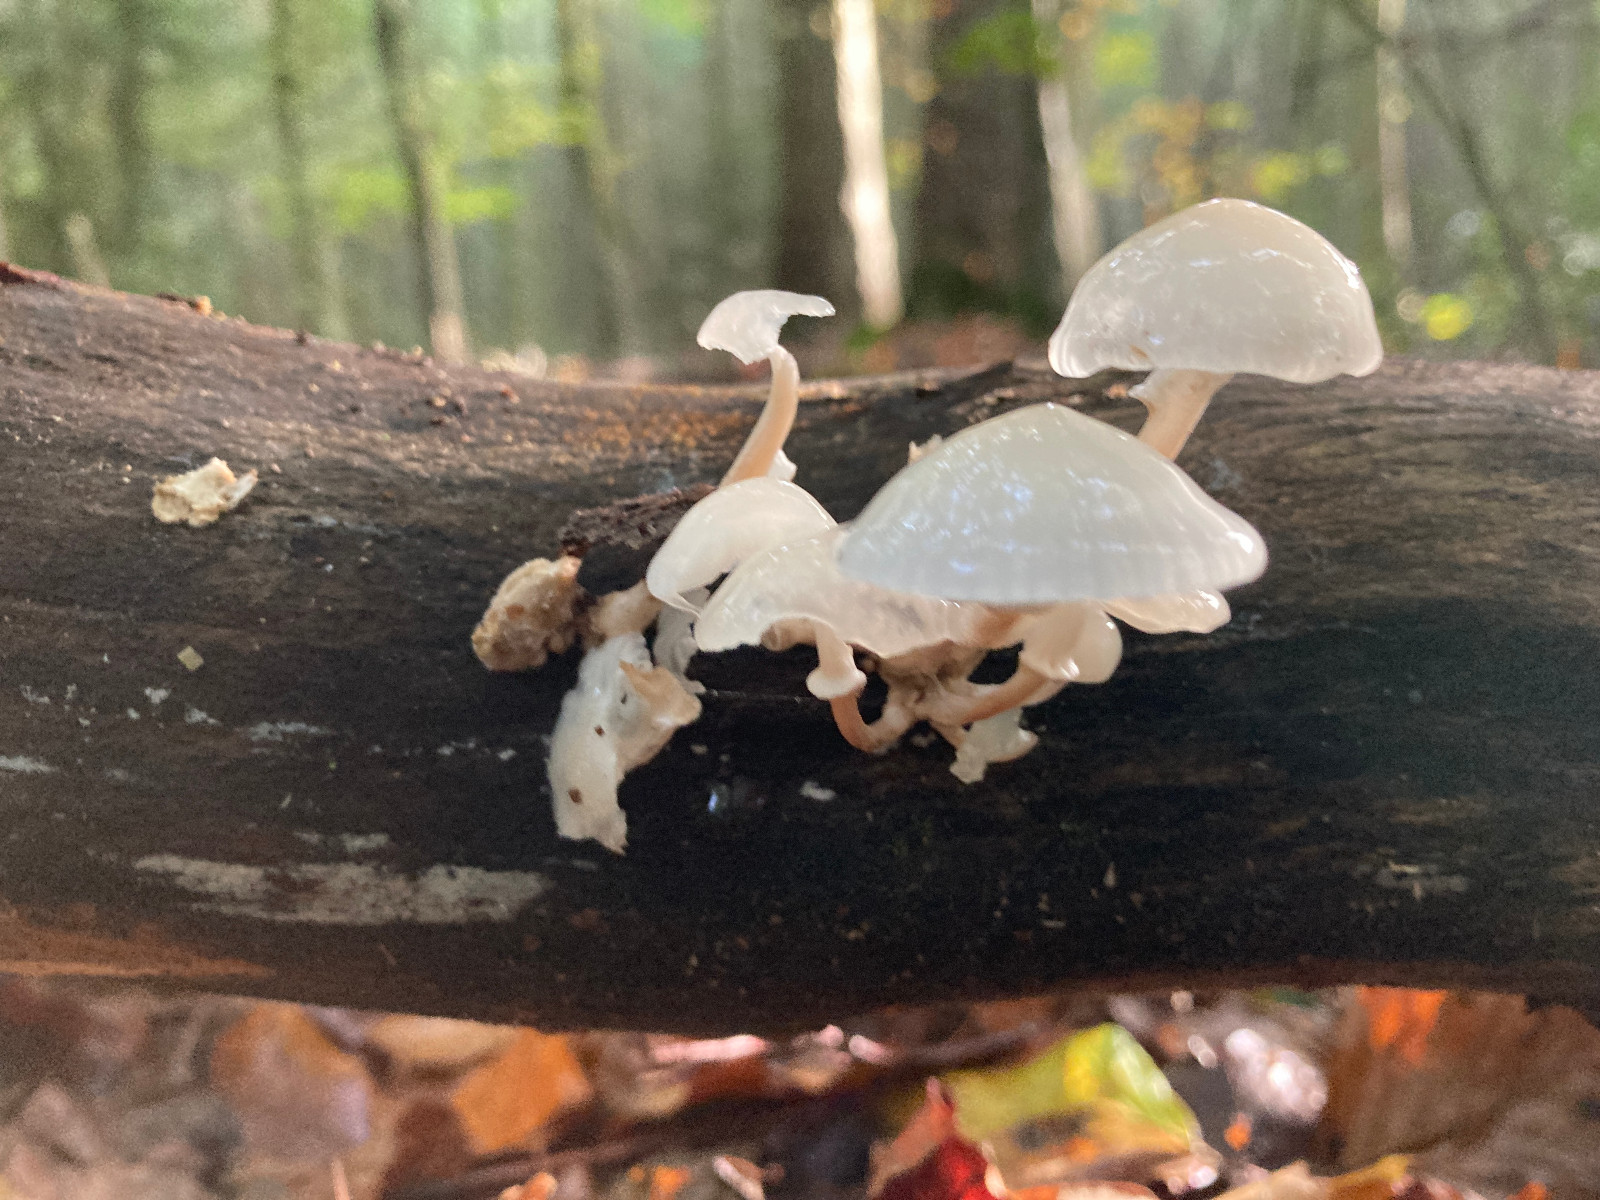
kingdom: Fungi
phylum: Basidiomycota
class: Agaricomycetes
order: Agaricales
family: Physalacriaceae
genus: Mucidula
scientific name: Mucidula mucida
